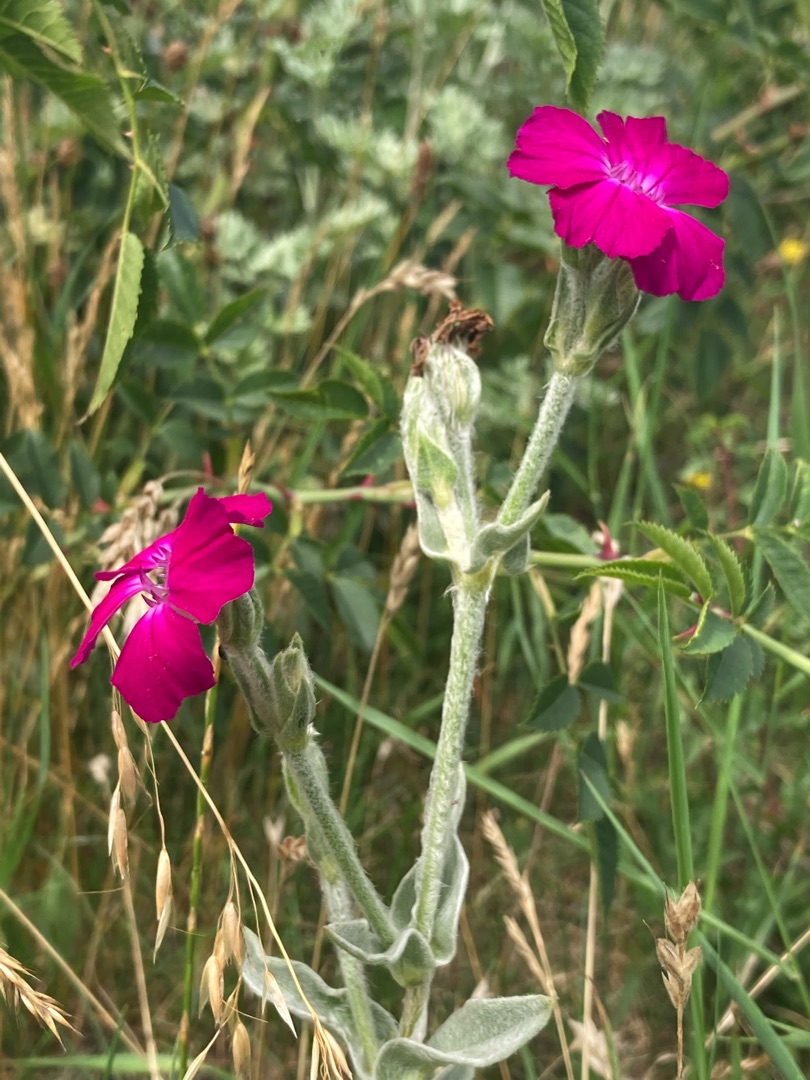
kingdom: Plantae
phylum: Tracheophyta
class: Magnoliopsida
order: Caryophyllales
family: Caryophyllaceae
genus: Silene
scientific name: Silene coronaria
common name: Fiksernellike
